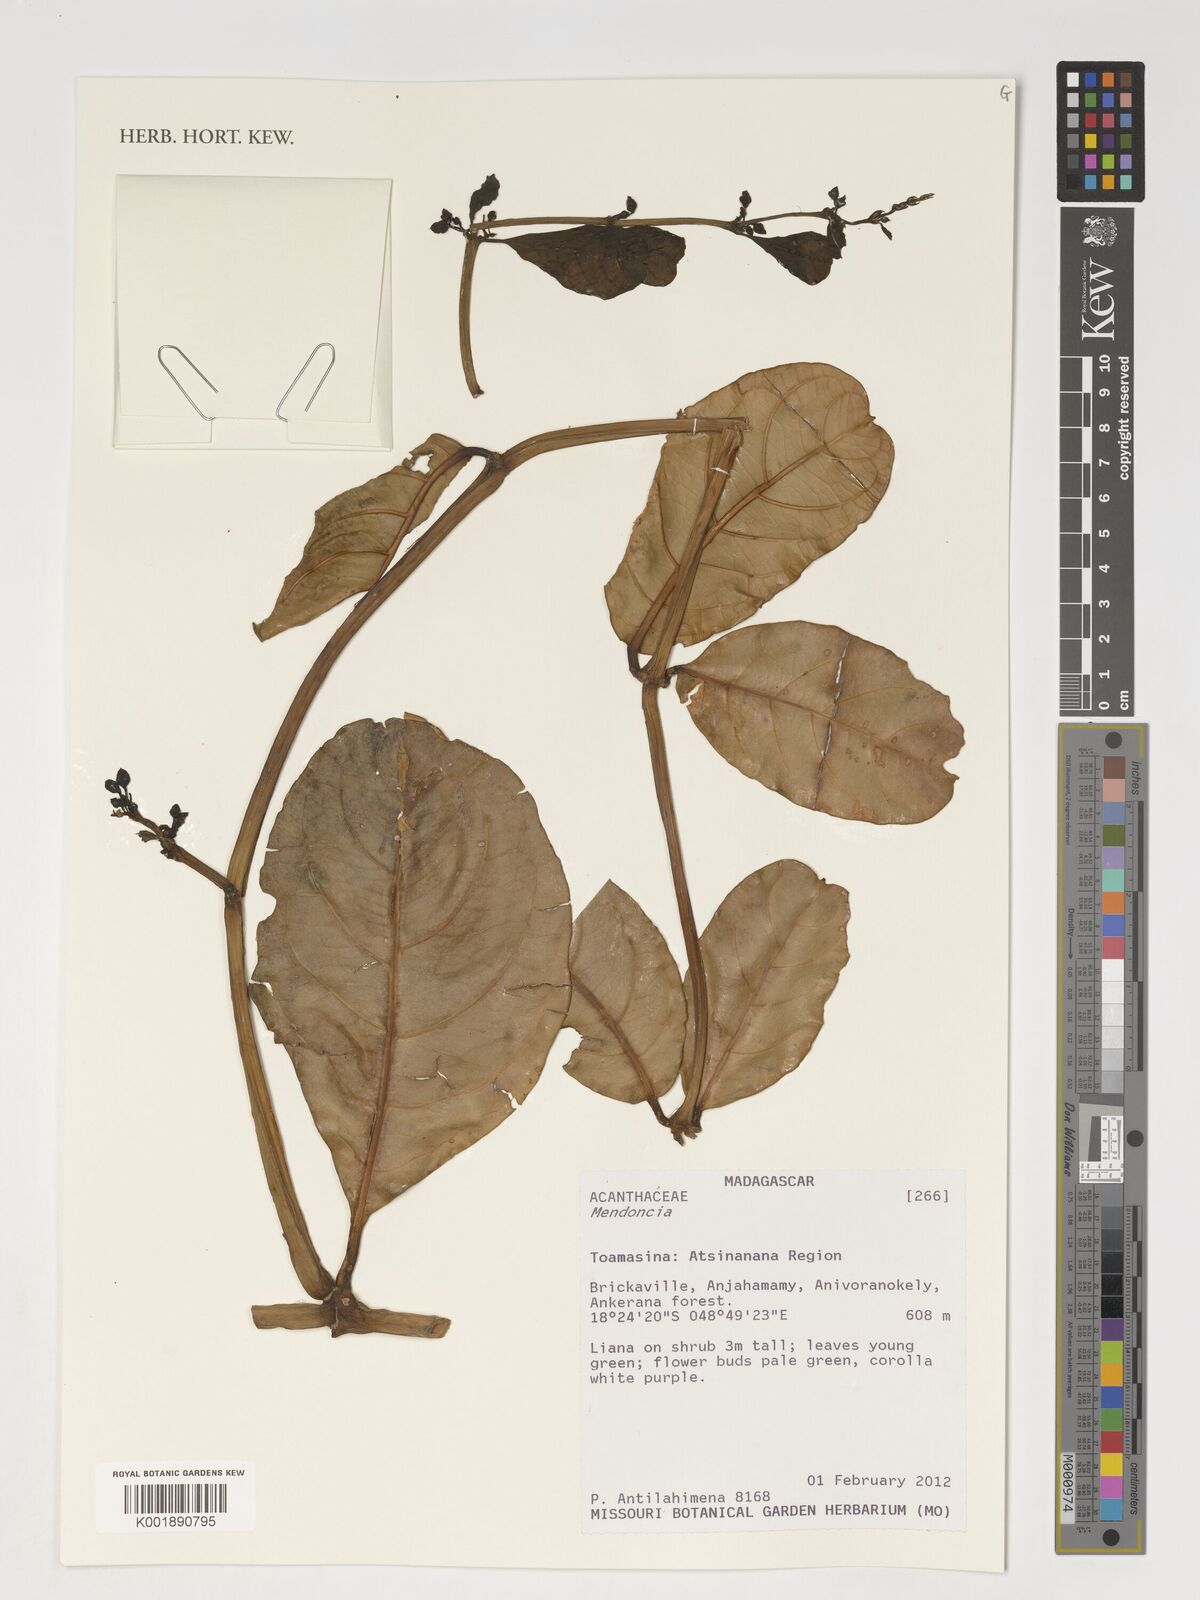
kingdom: Plantae
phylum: Tracheophyta
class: Magnoliopsida
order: Lamiales
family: Acanthaceae
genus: Mendoncia
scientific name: Mendoncia
